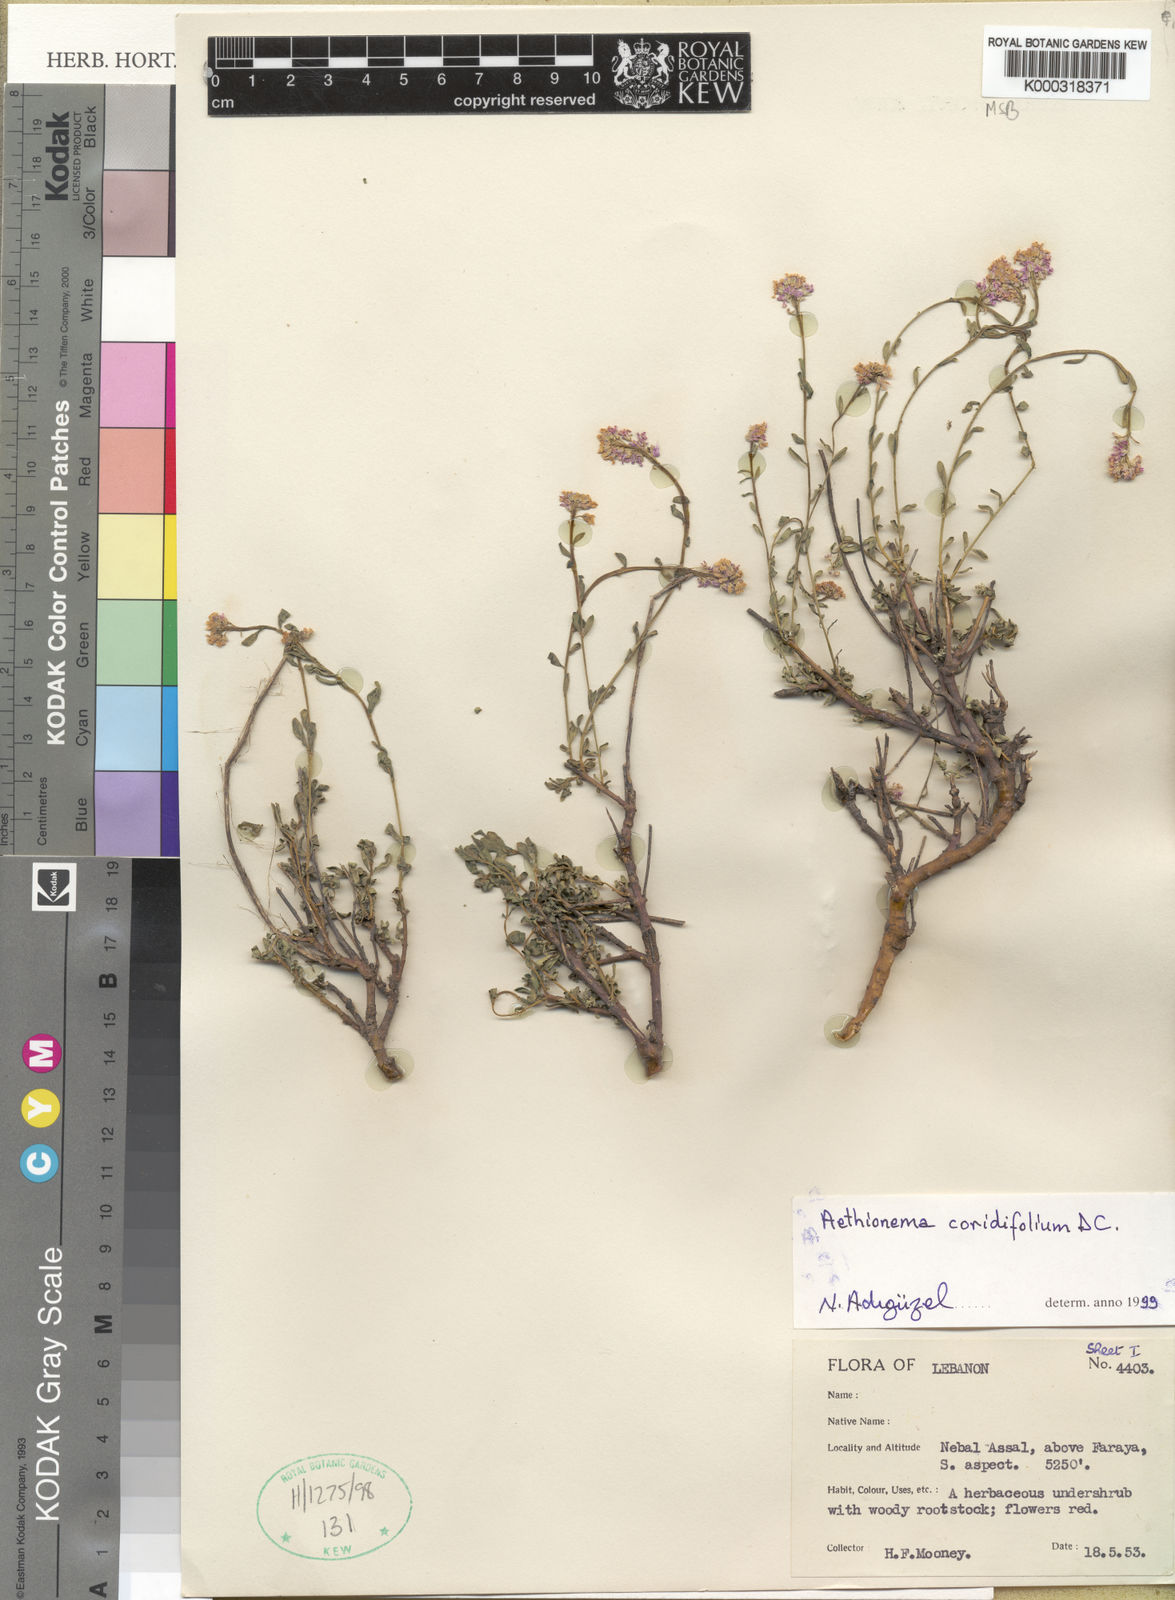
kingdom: Plantae
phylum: Tracheophyta
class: Magnoliopsida
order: Brassicales
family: Brassicaceae
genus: Aethionema
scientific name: Aethionema coridifolium
